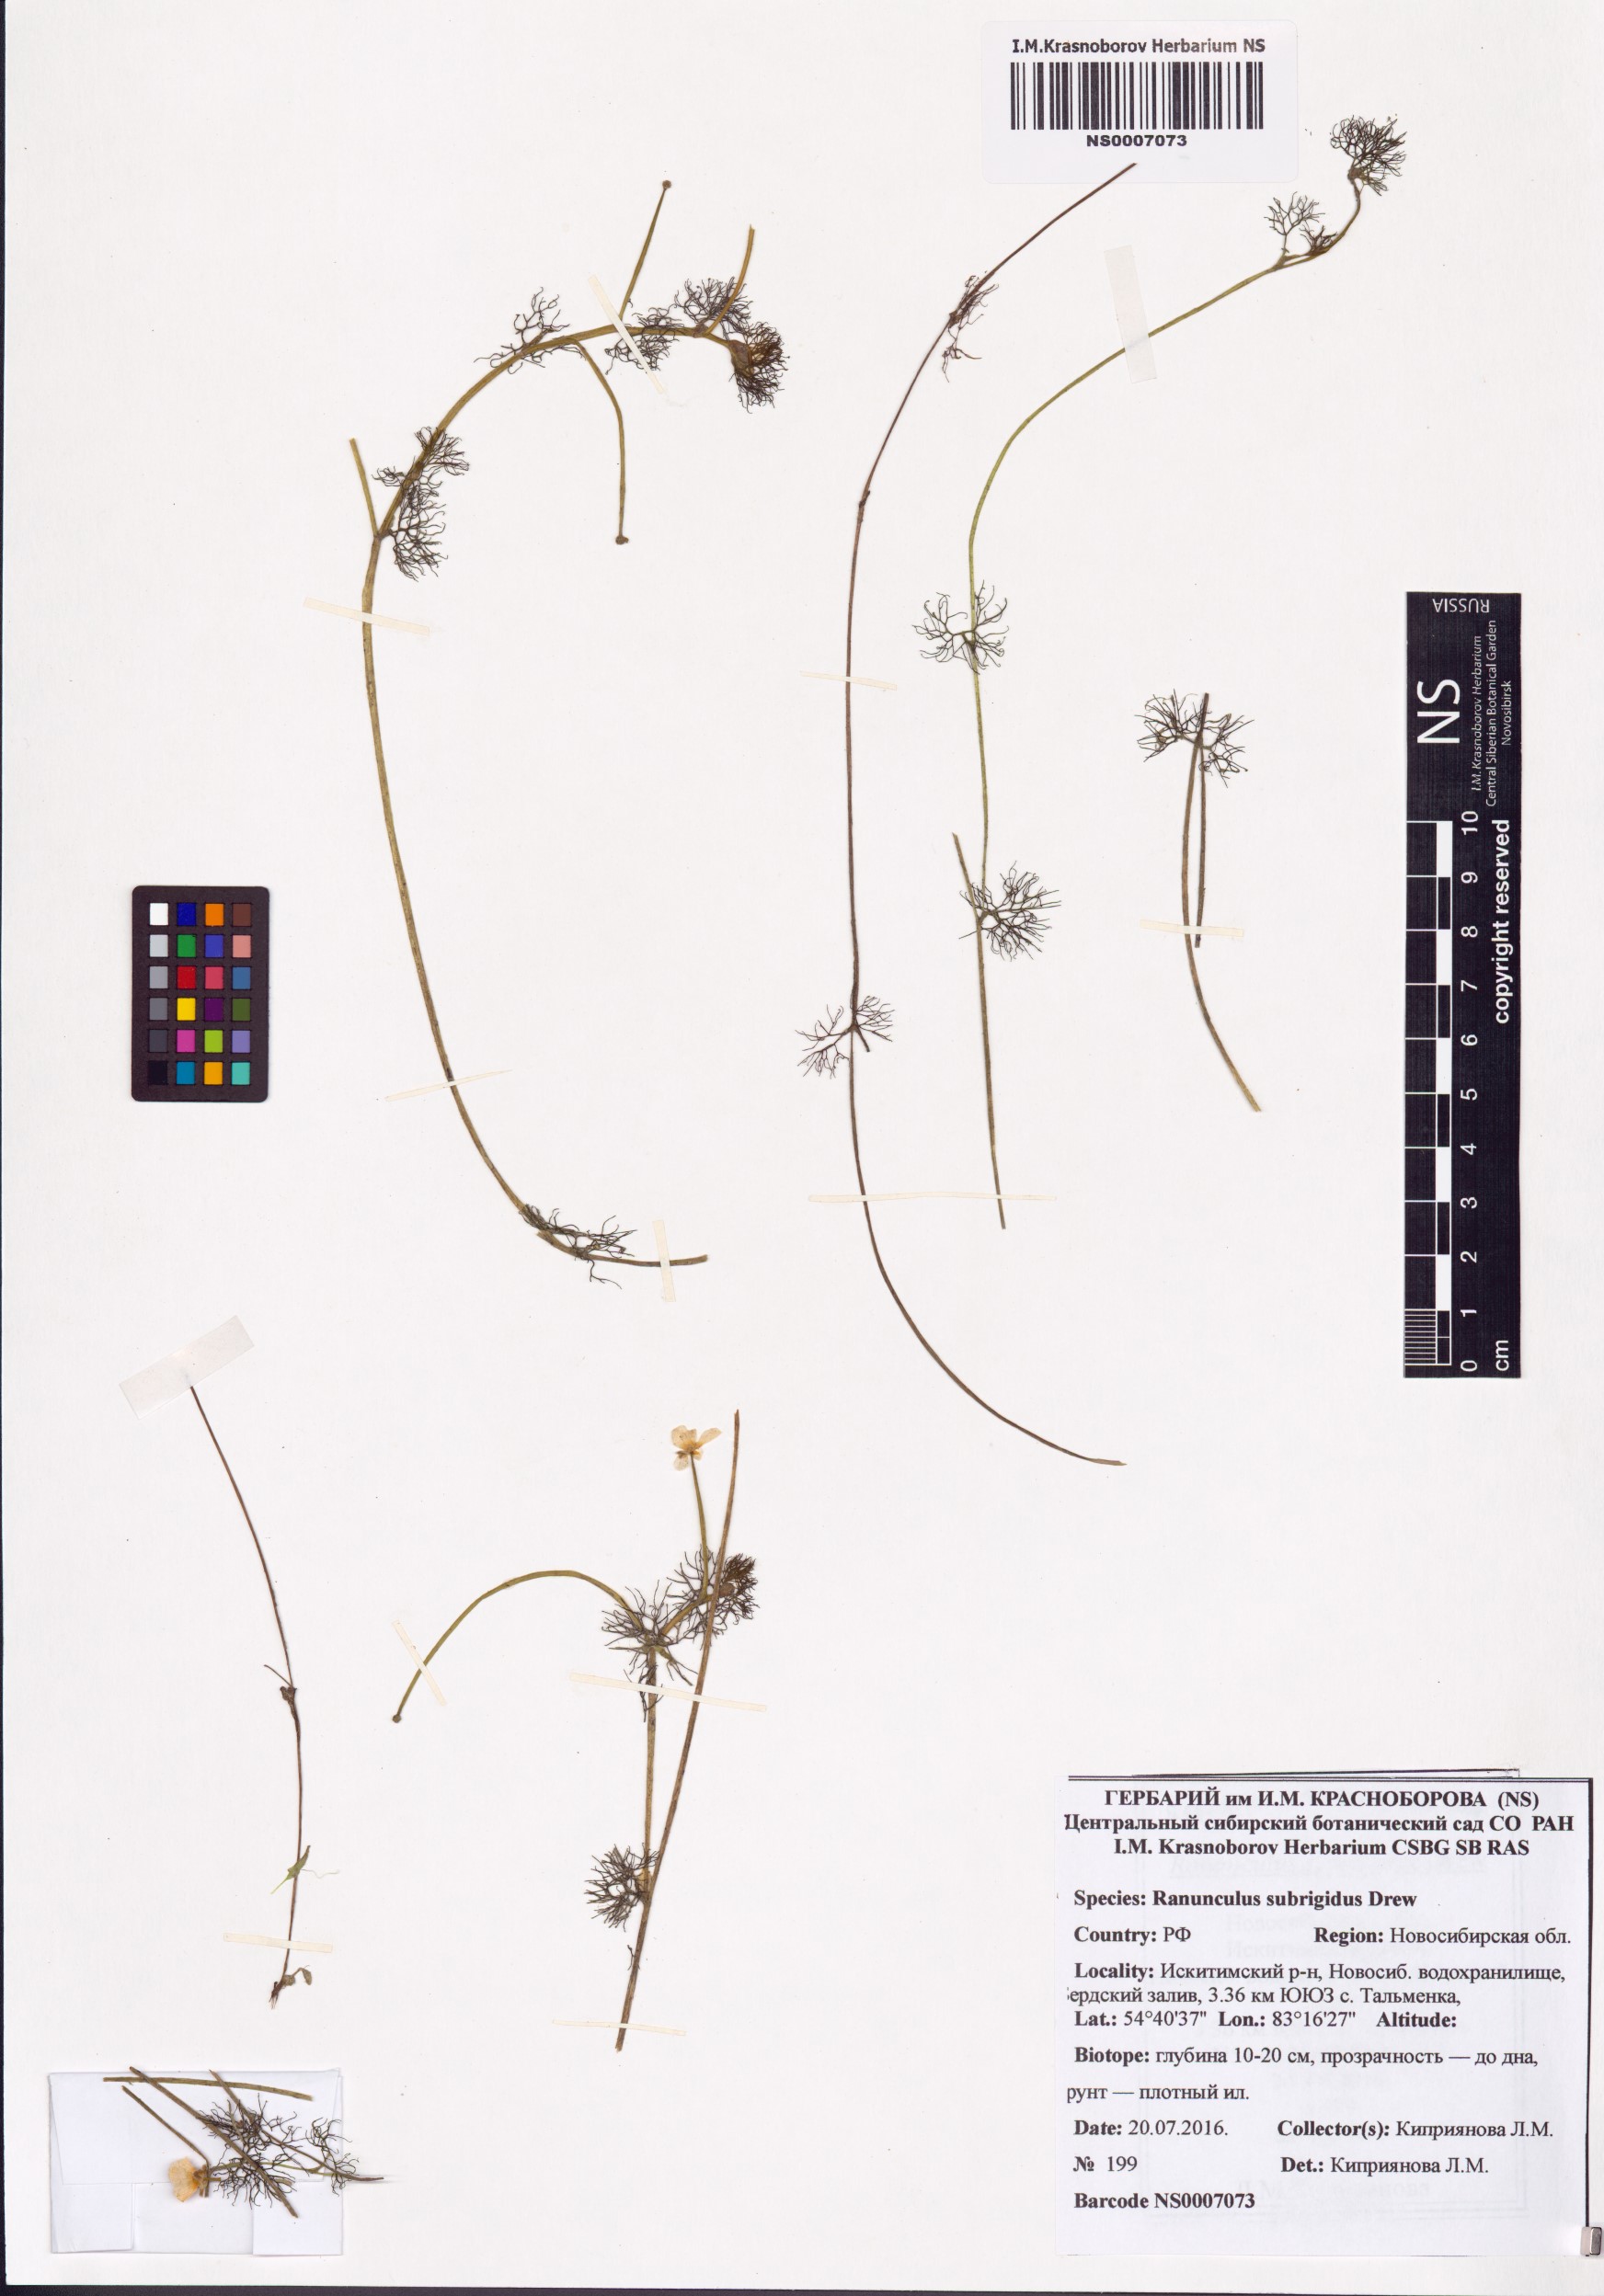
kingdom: Plantae
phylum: Tracheophyta
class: Magnoliopsida
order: Ranunculales
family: Ranunculaceae
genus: Ranunculus
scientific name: Ranunculus longirostris
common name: Curly white water-crowfoot
